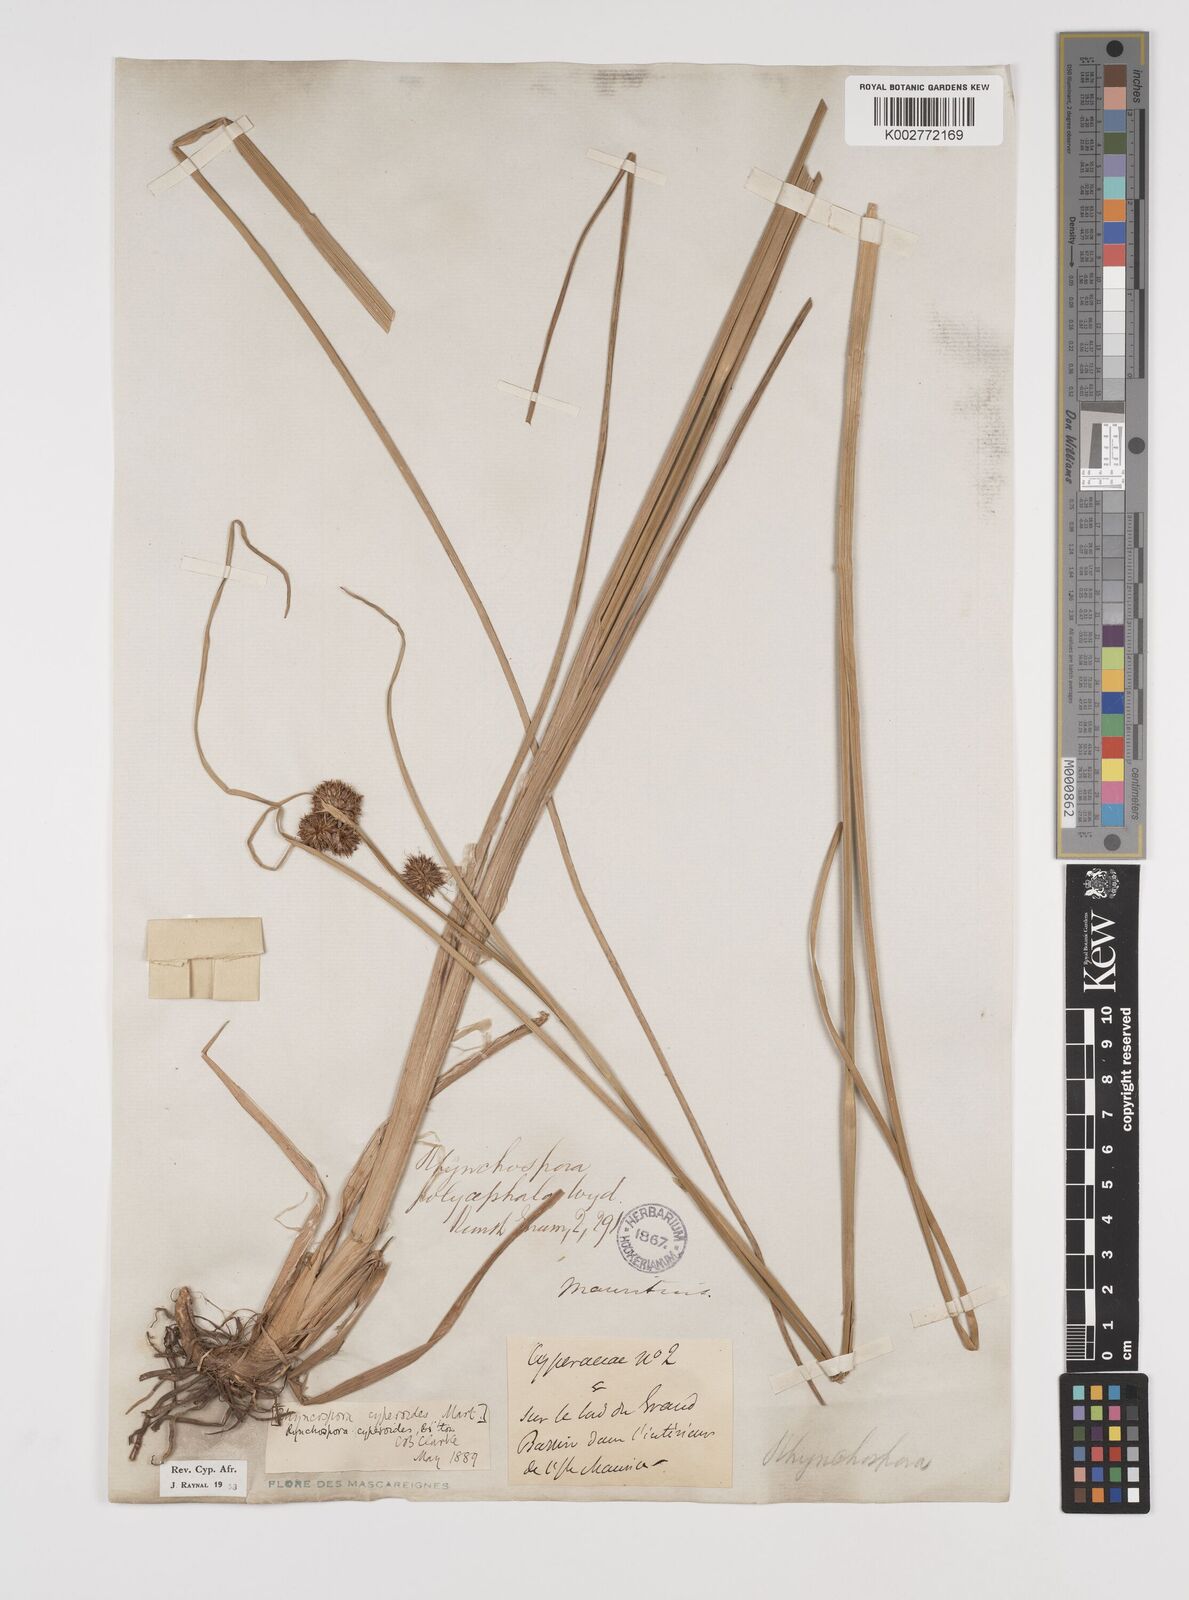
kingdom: Plantae
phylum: Tracheophyta
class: Liliopsida
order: Poales
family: Cyperaceae
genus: Rhynchospora
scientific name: Rhynchospora holoschoenoides
